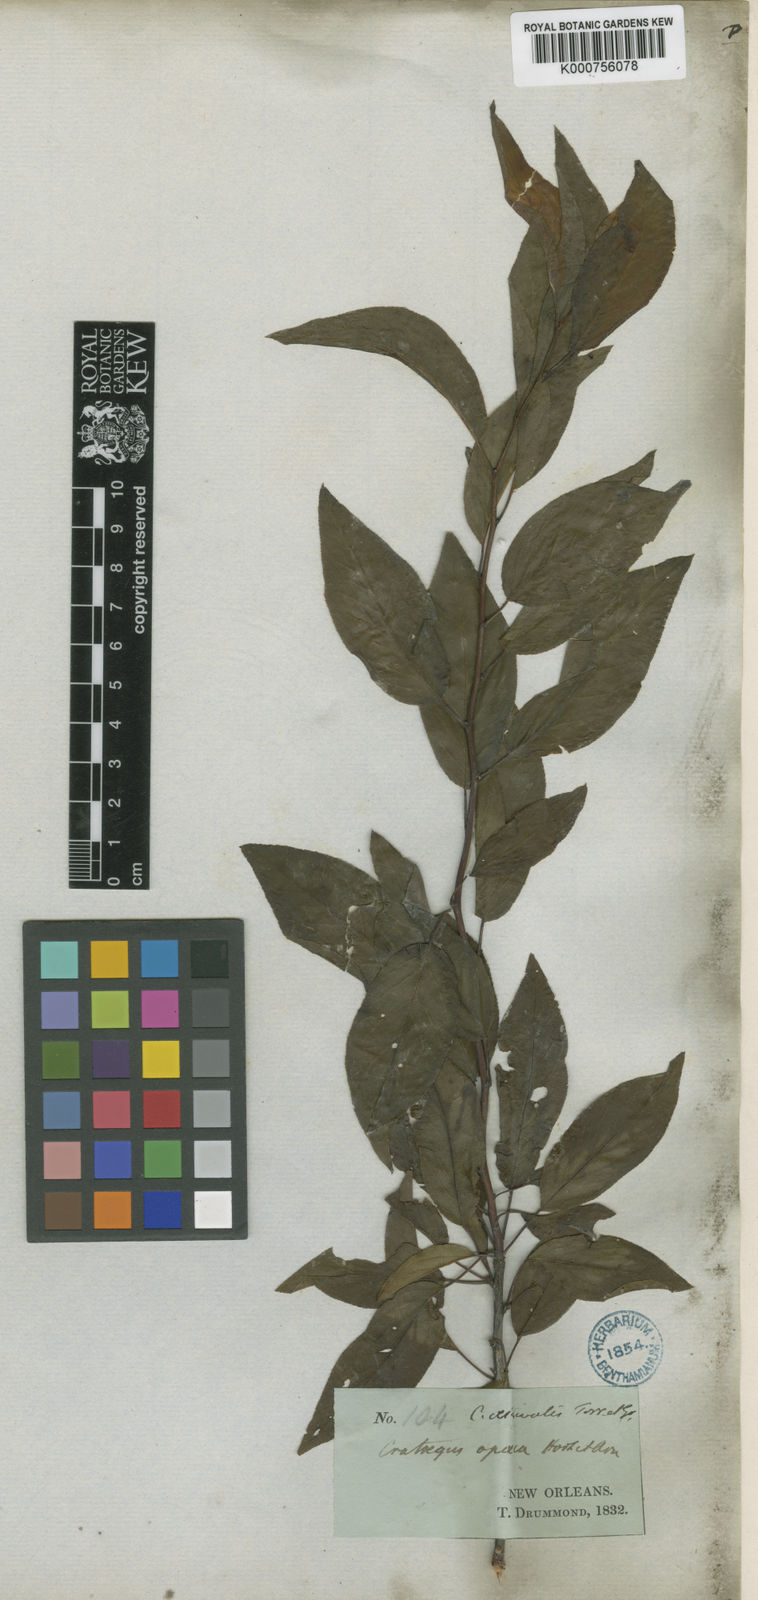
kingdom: Plantae
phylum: Tracheophyta
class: Magnoliopsida
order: Rosales
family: Rosaceae
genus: Crataegus
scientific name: Crataegus aestivalis
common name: Mayhaw
